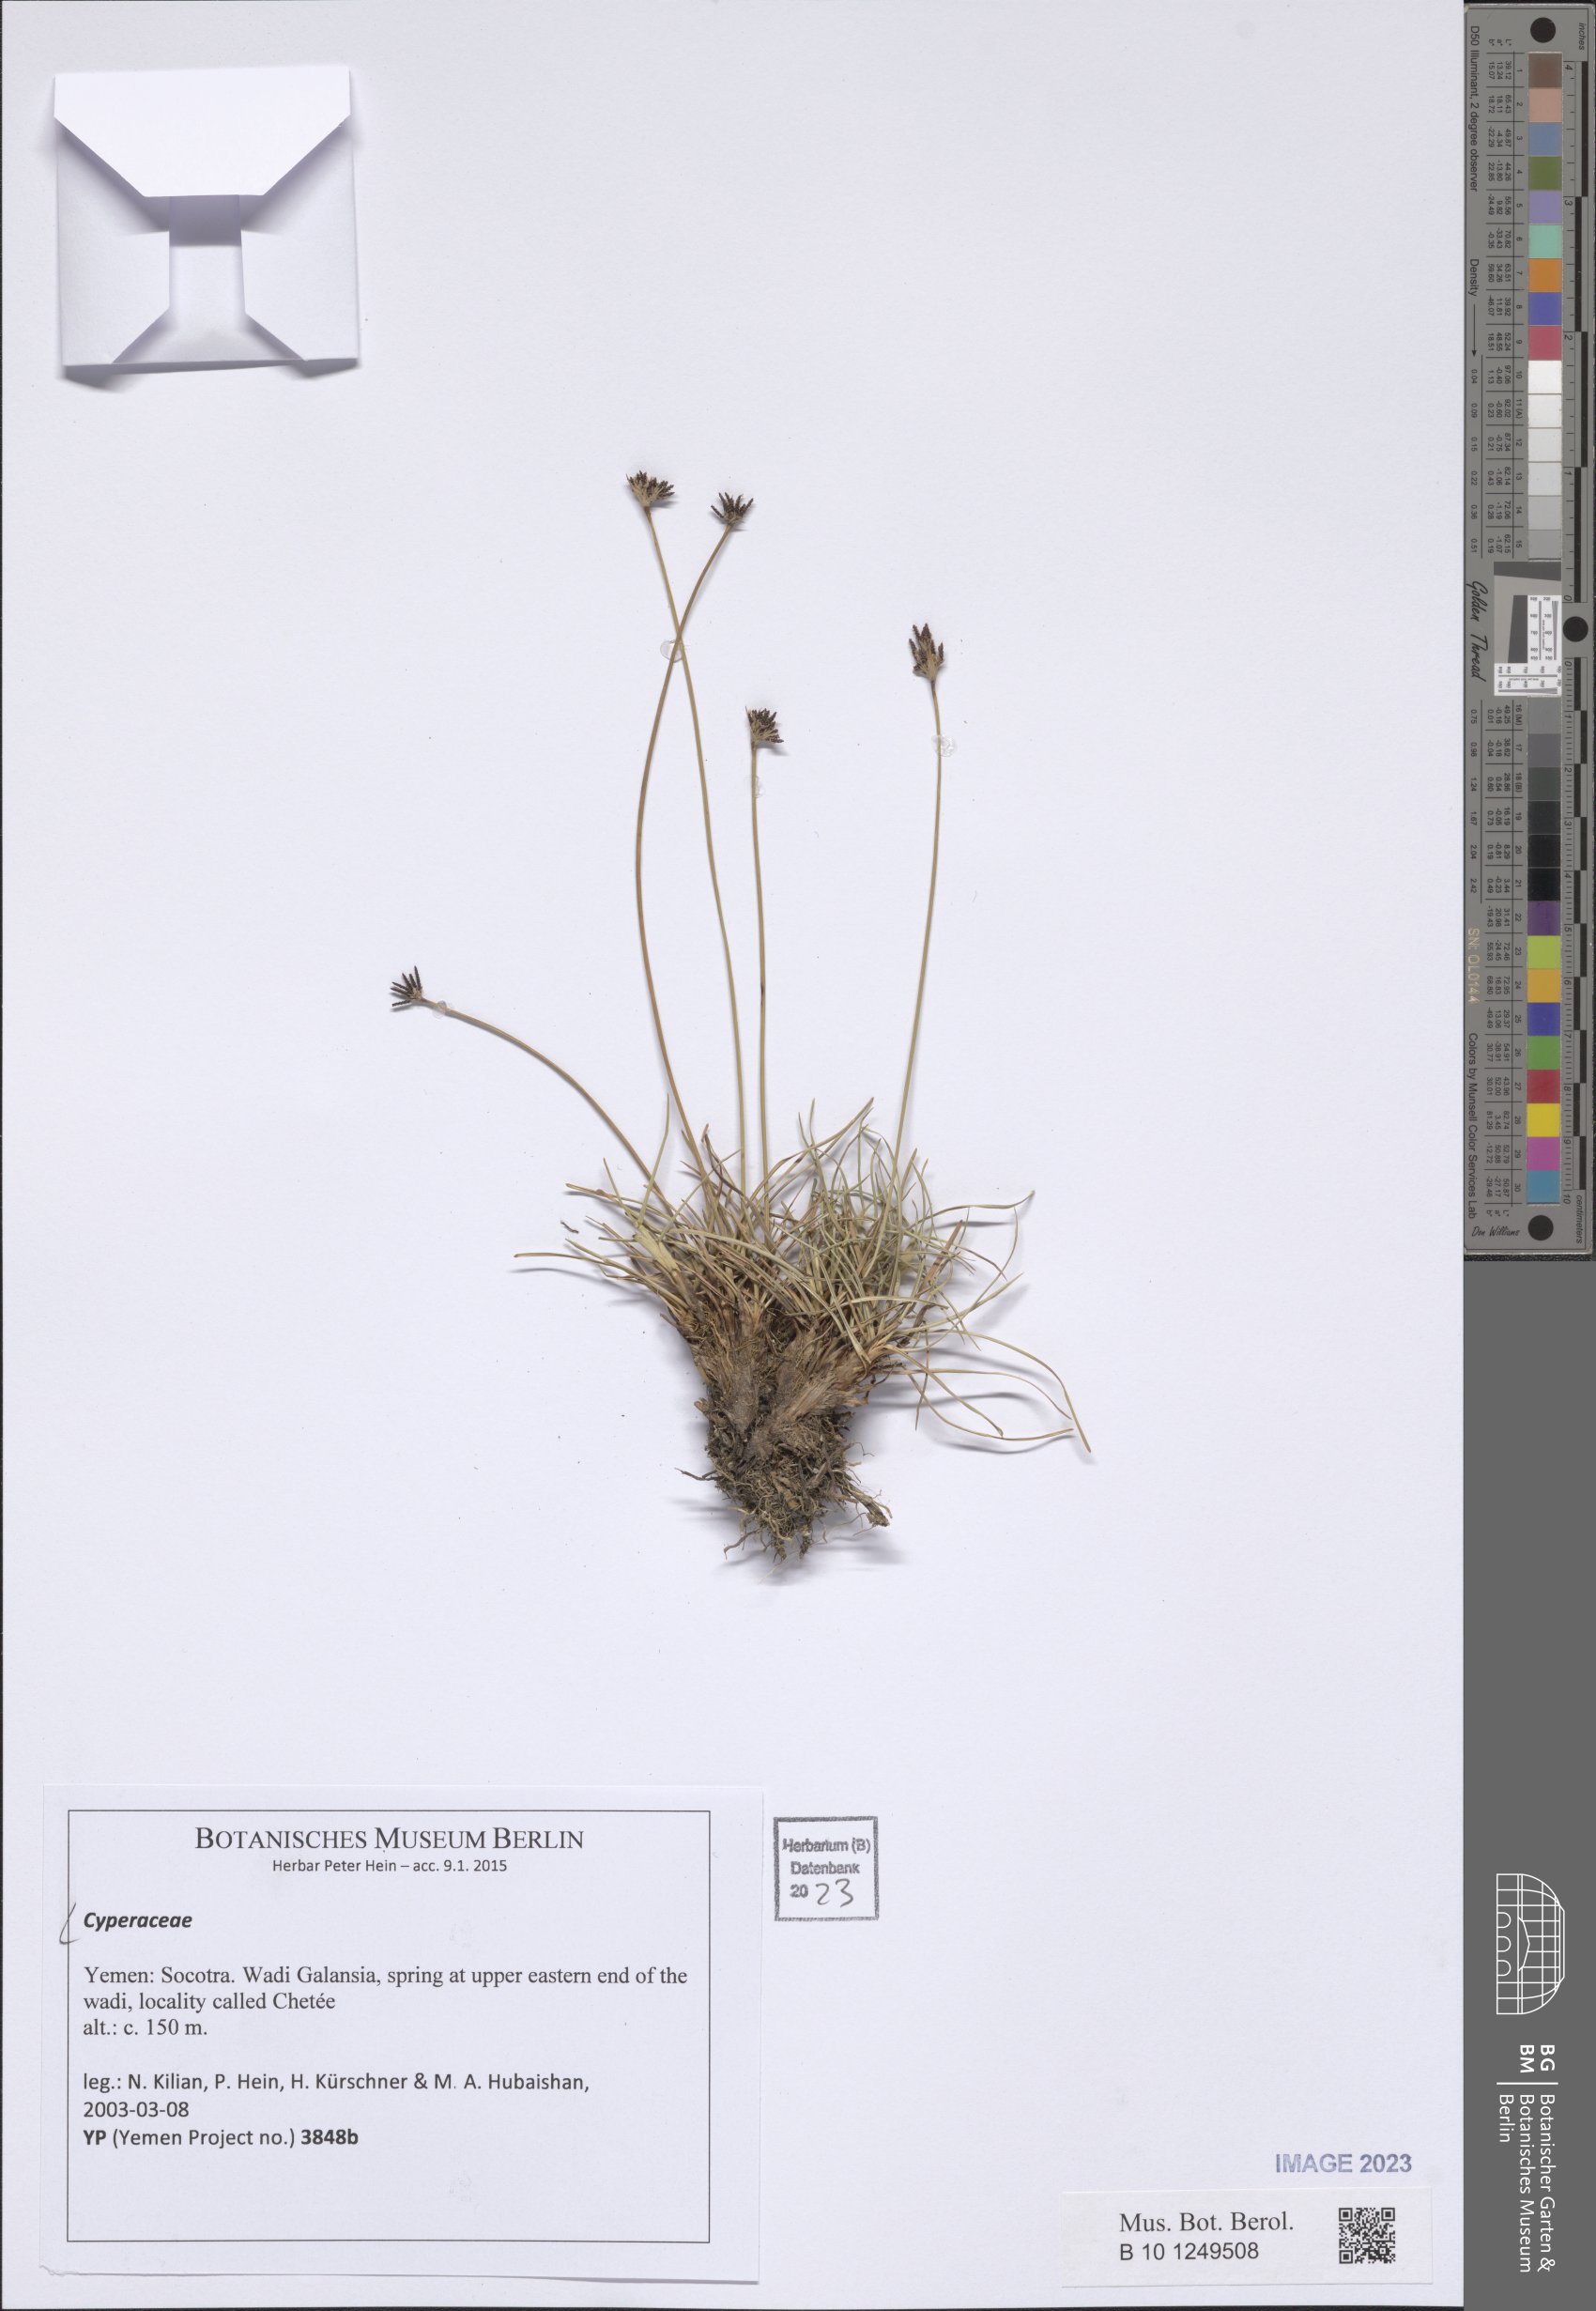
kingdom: Plantae
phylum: Tracheophyta
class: Liliopsida
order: Poales
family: Cyperaceae
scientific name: Cyperaceae
